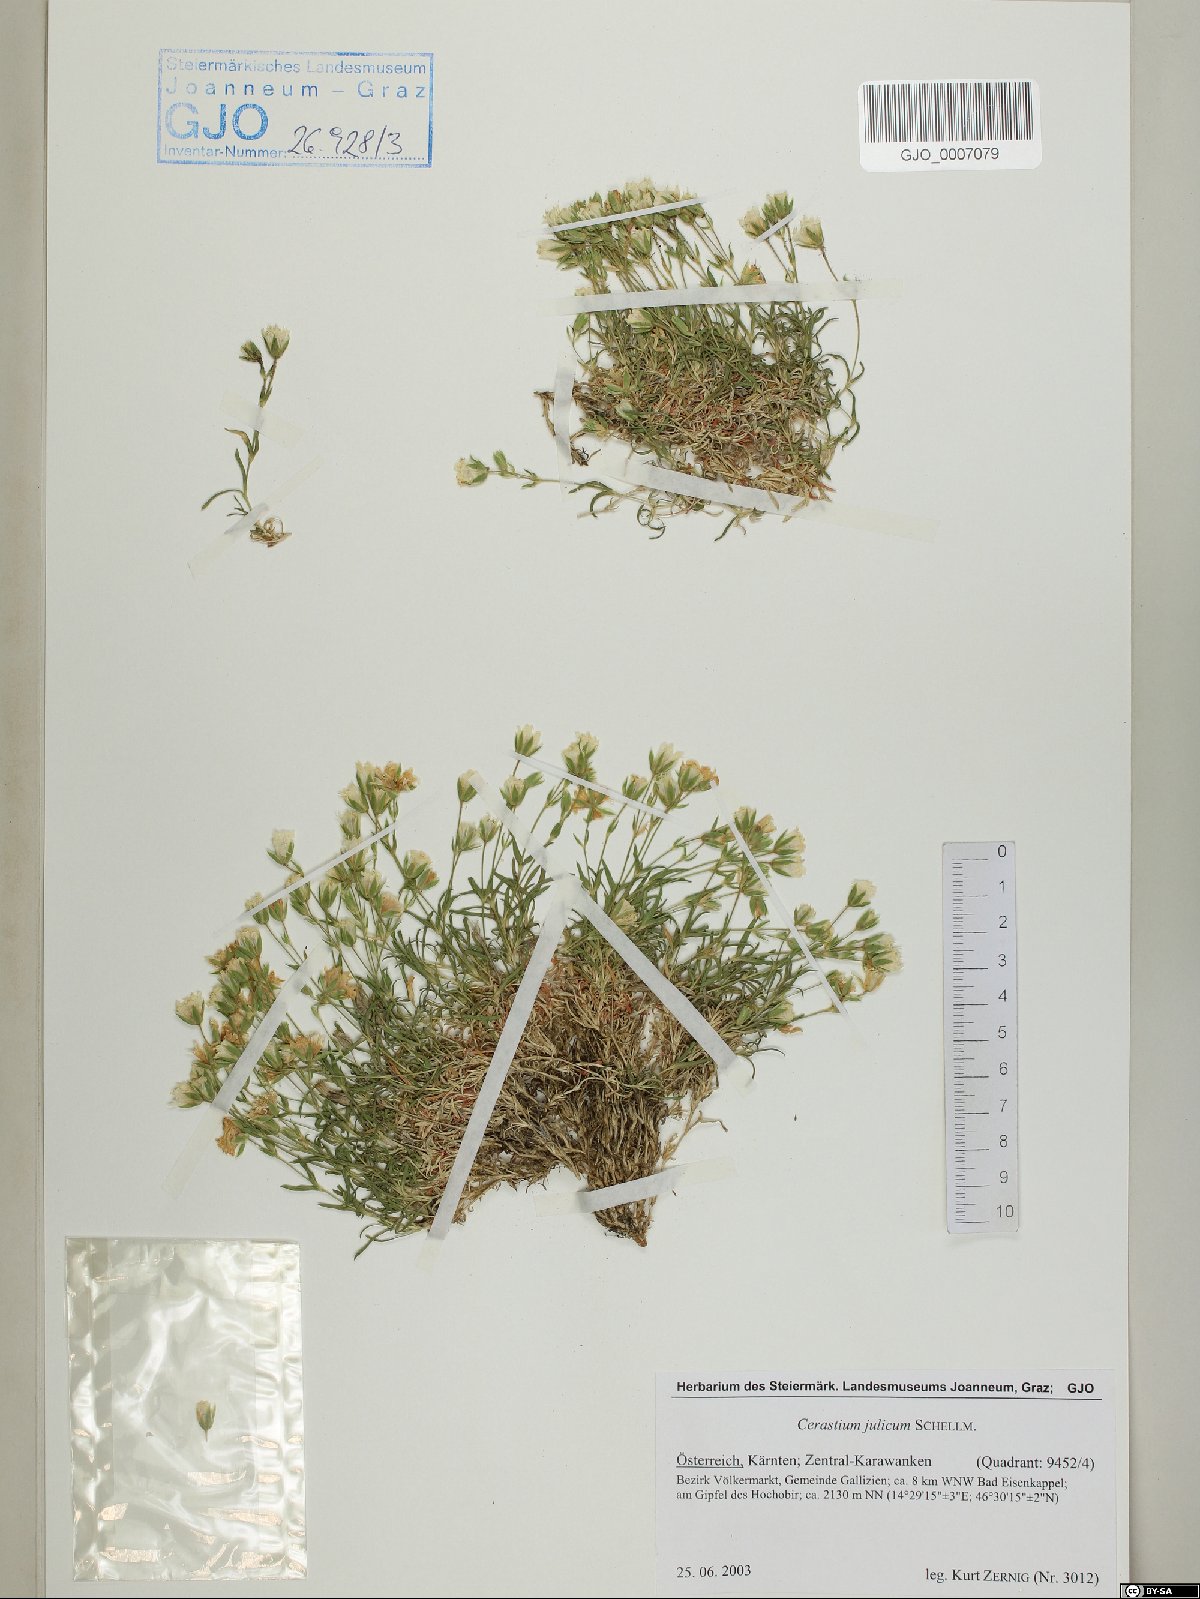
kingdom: Plantae
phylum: Tracheophyta
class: Magnoliopsida
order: Caryophyllales
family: Caryophyllaceae
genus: Cerastium
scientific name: Cerastium julicum
